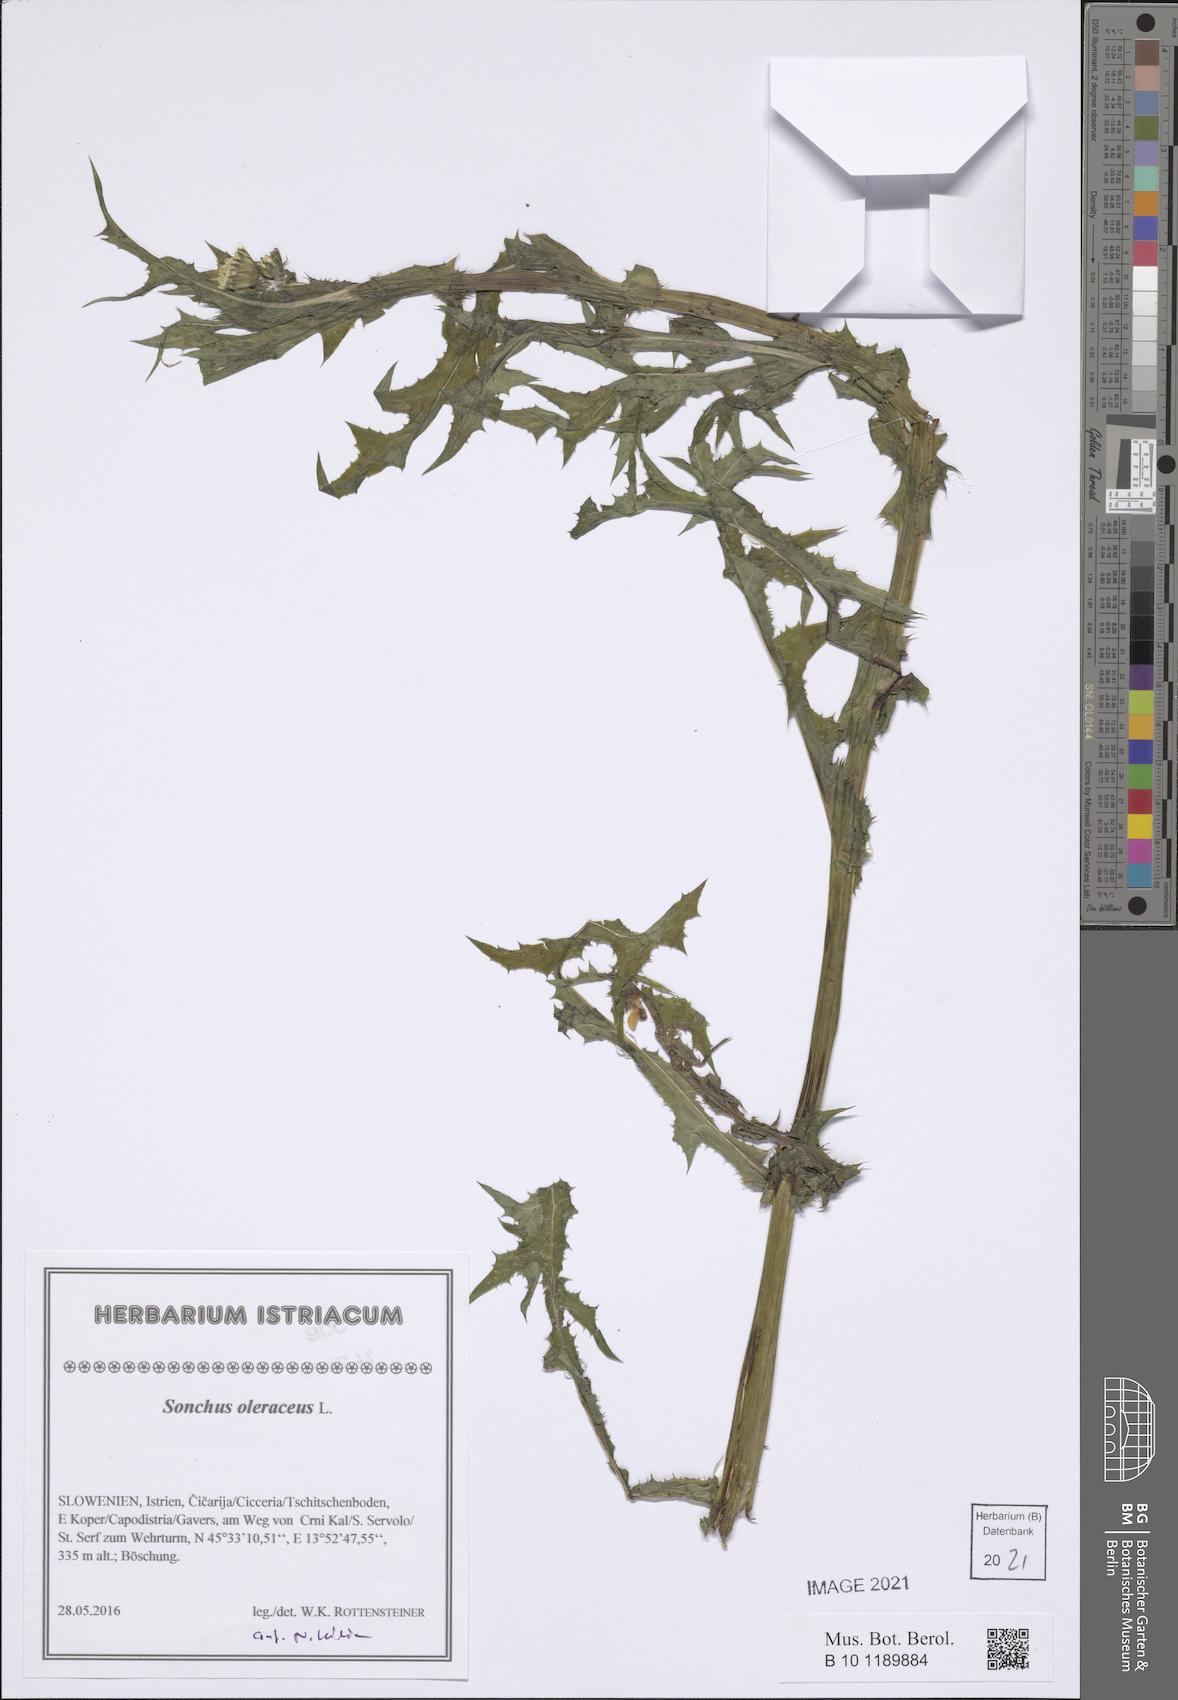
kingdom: Plantae
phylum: Tracheophyta
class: Magnoliopsida
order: Asterales
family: Asteraceae
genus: Sonchus
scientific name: Sonchus oleraceus
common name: Common sowthistle
